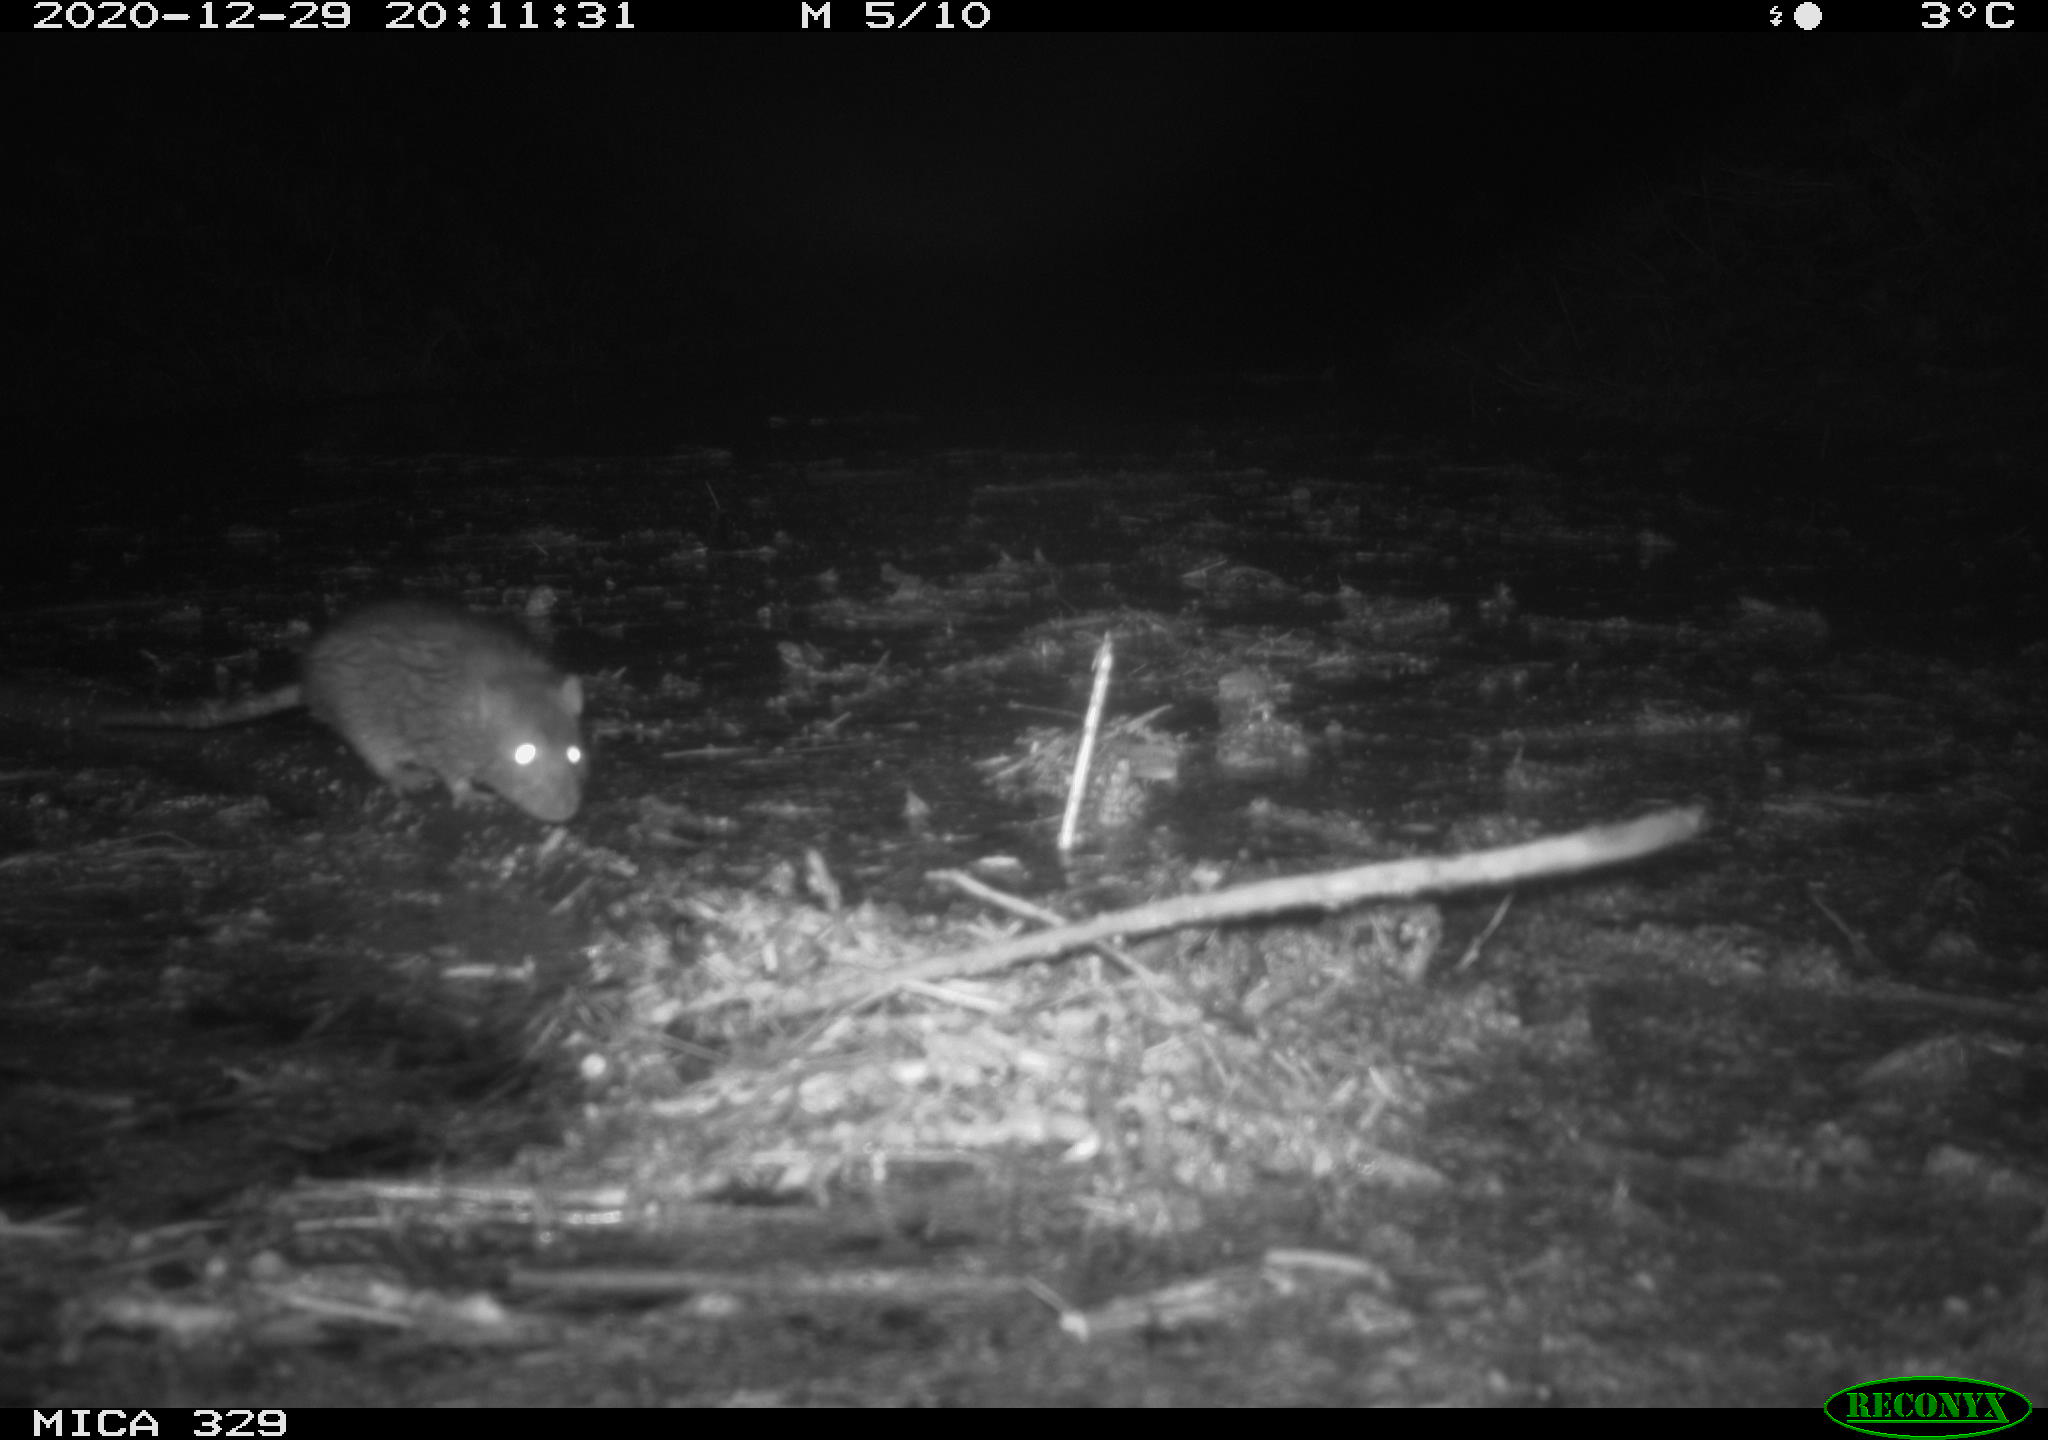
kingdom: Animalia
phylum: Chordata
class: Mammalia
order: Rodentia
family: Muridae
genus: Rattus
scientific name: Rattus norvegicus
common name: Brown rat
